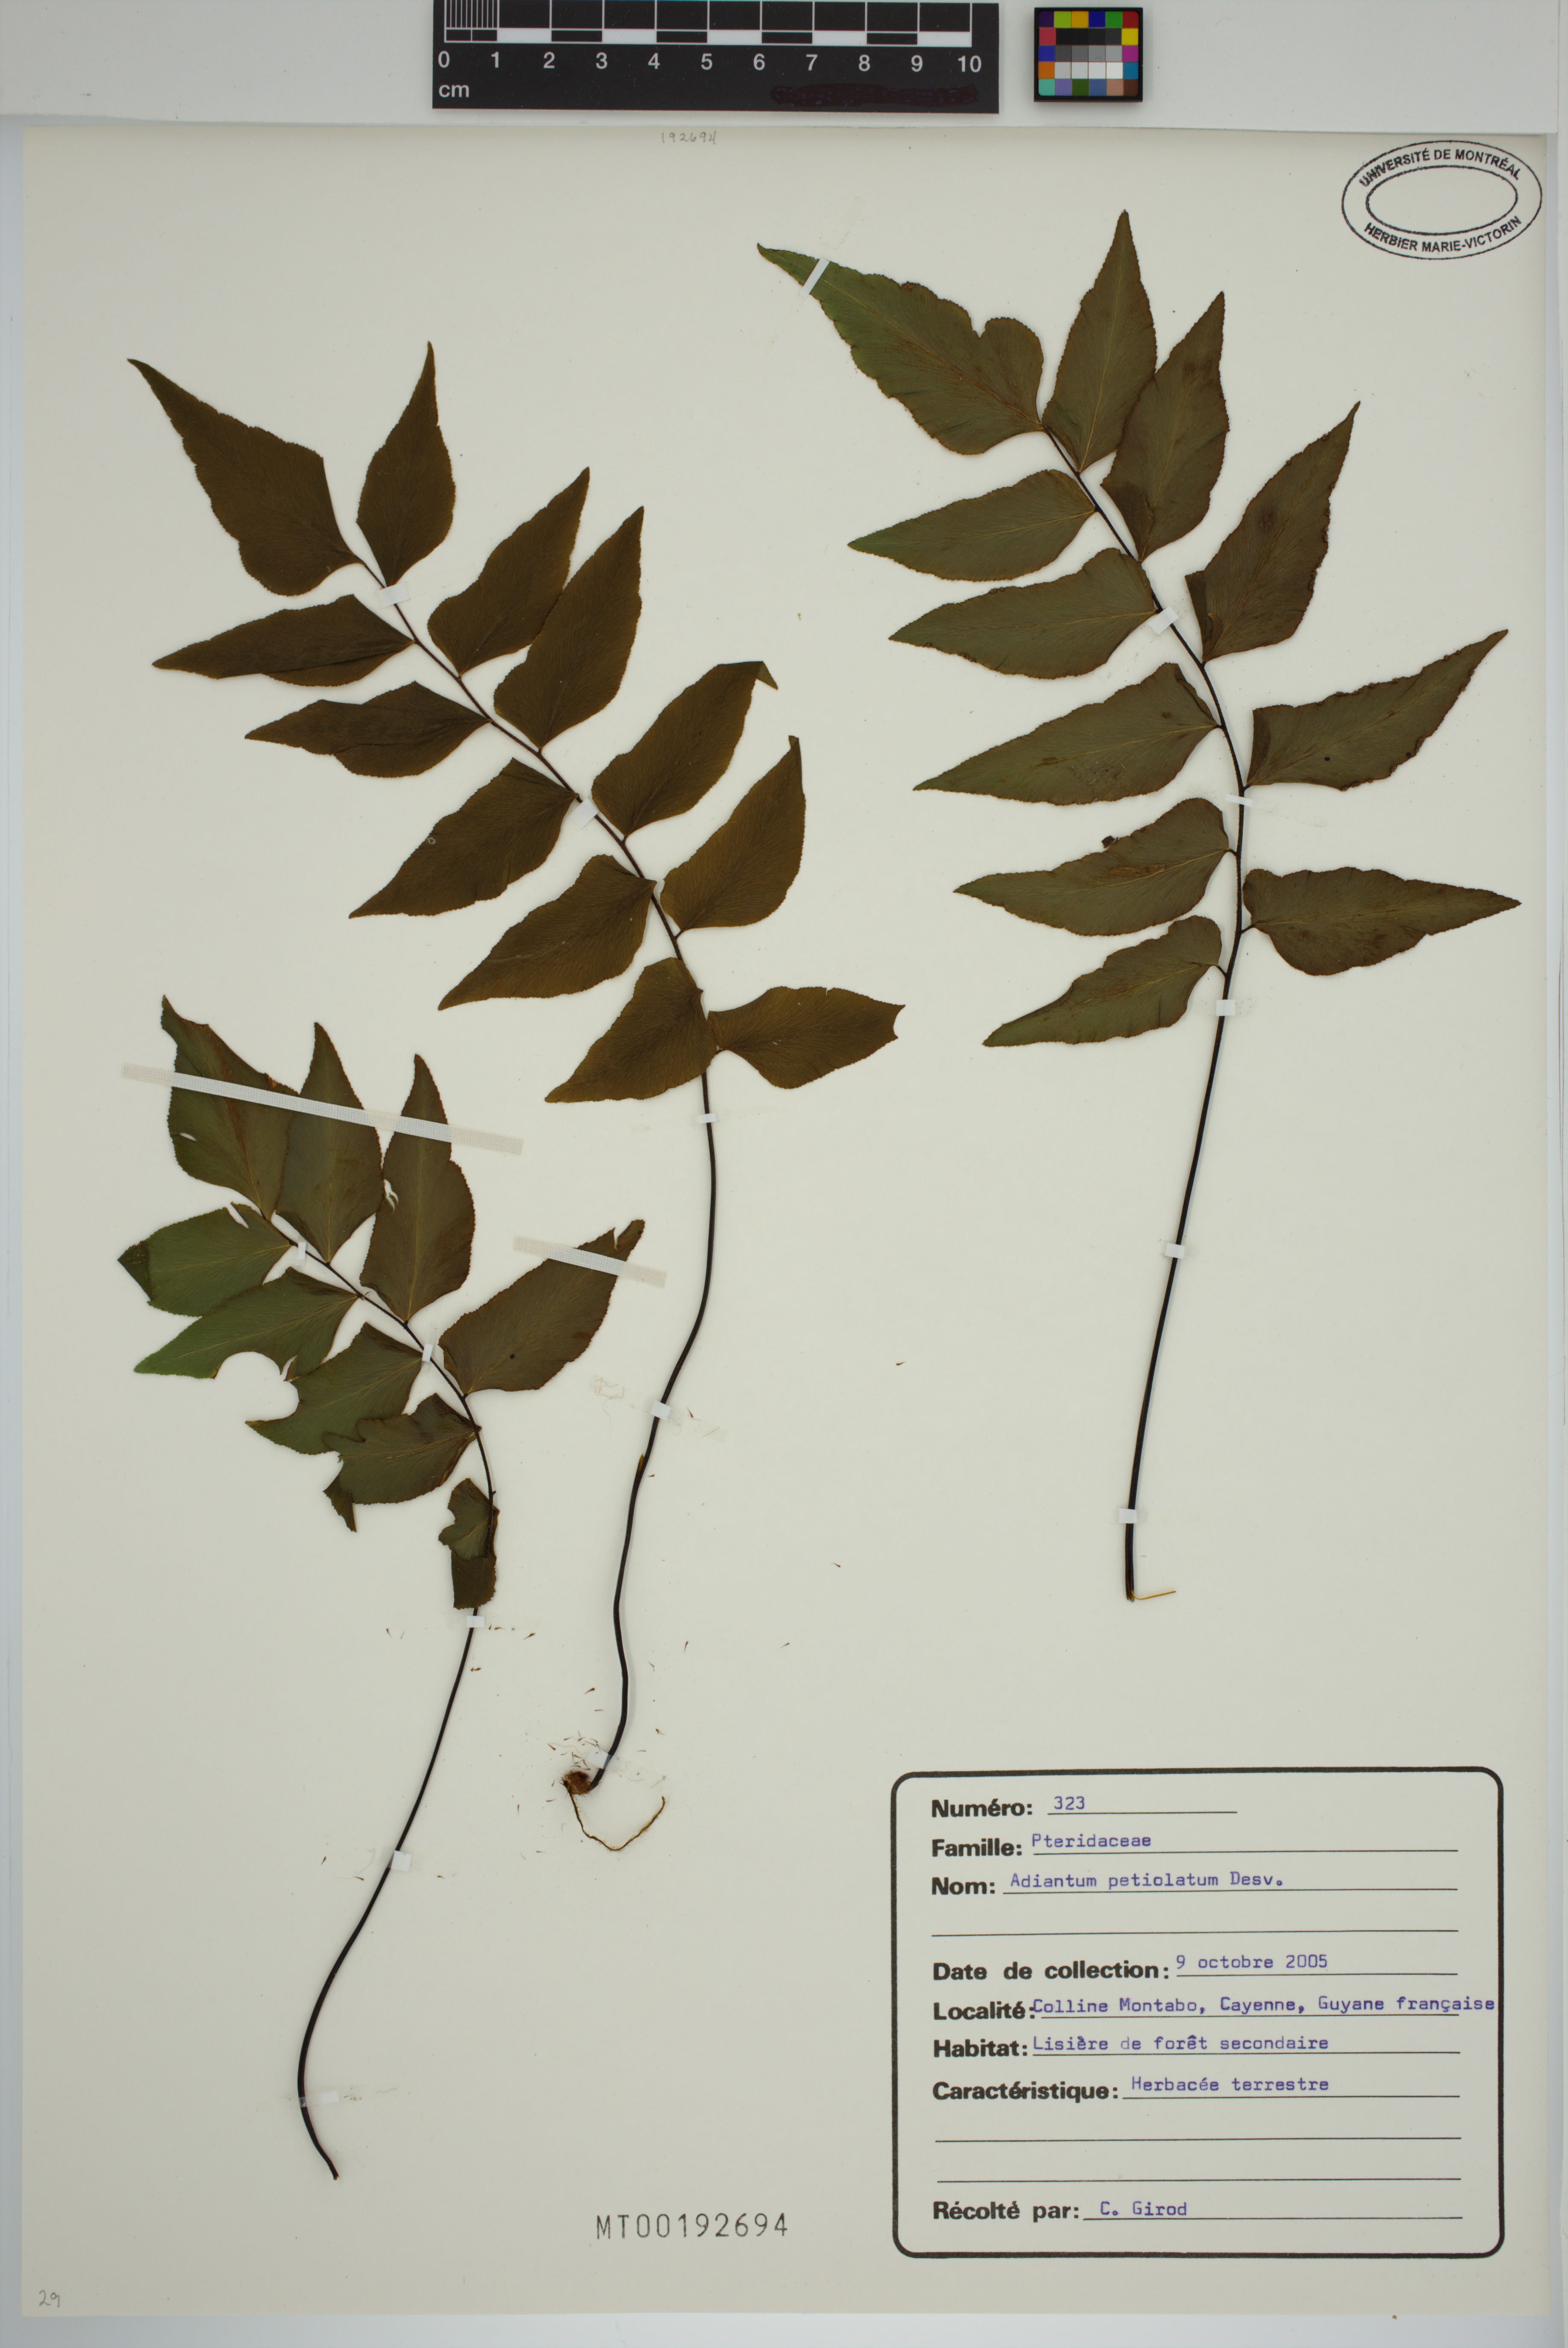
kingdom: Plantae
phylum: Tracheophyta
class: Polypodiopsida
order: Polypodiales
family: Pteridaceae
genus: Adiantum
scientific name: Adiantum petiolatum
